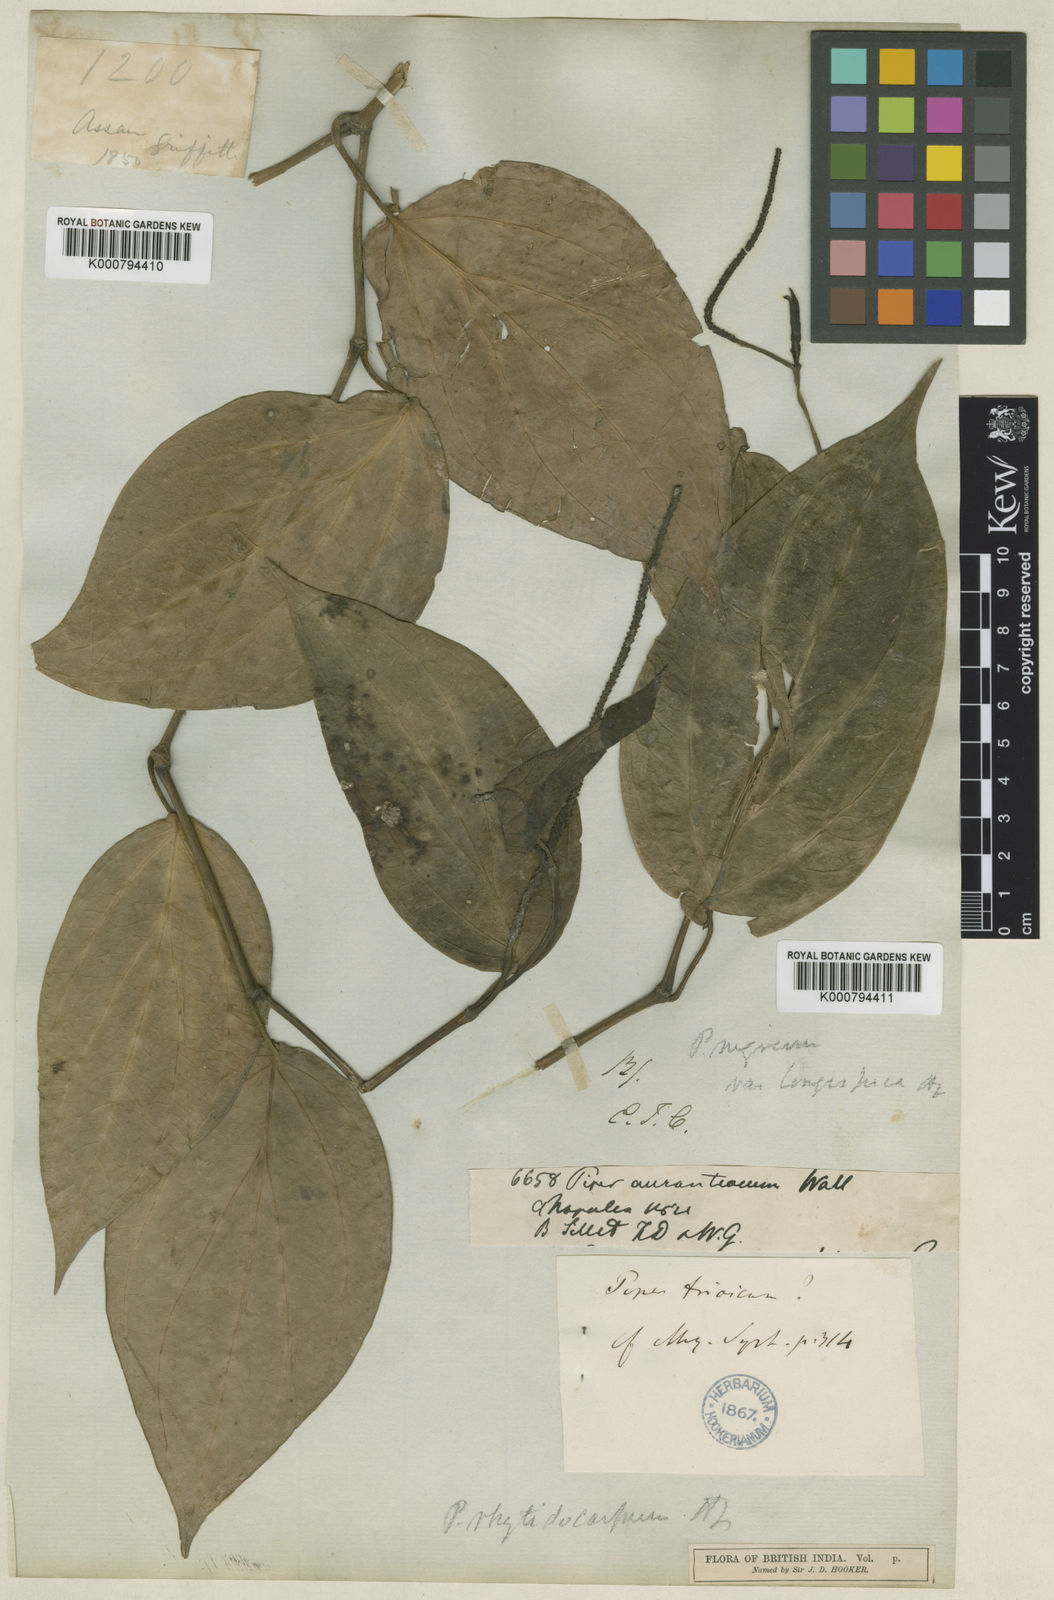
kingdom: Plantae
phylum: Tracheophyta
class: Magnoliopsida
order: Piperales
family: Piperaceae
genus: Piper
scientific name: Piper leptostachyum
